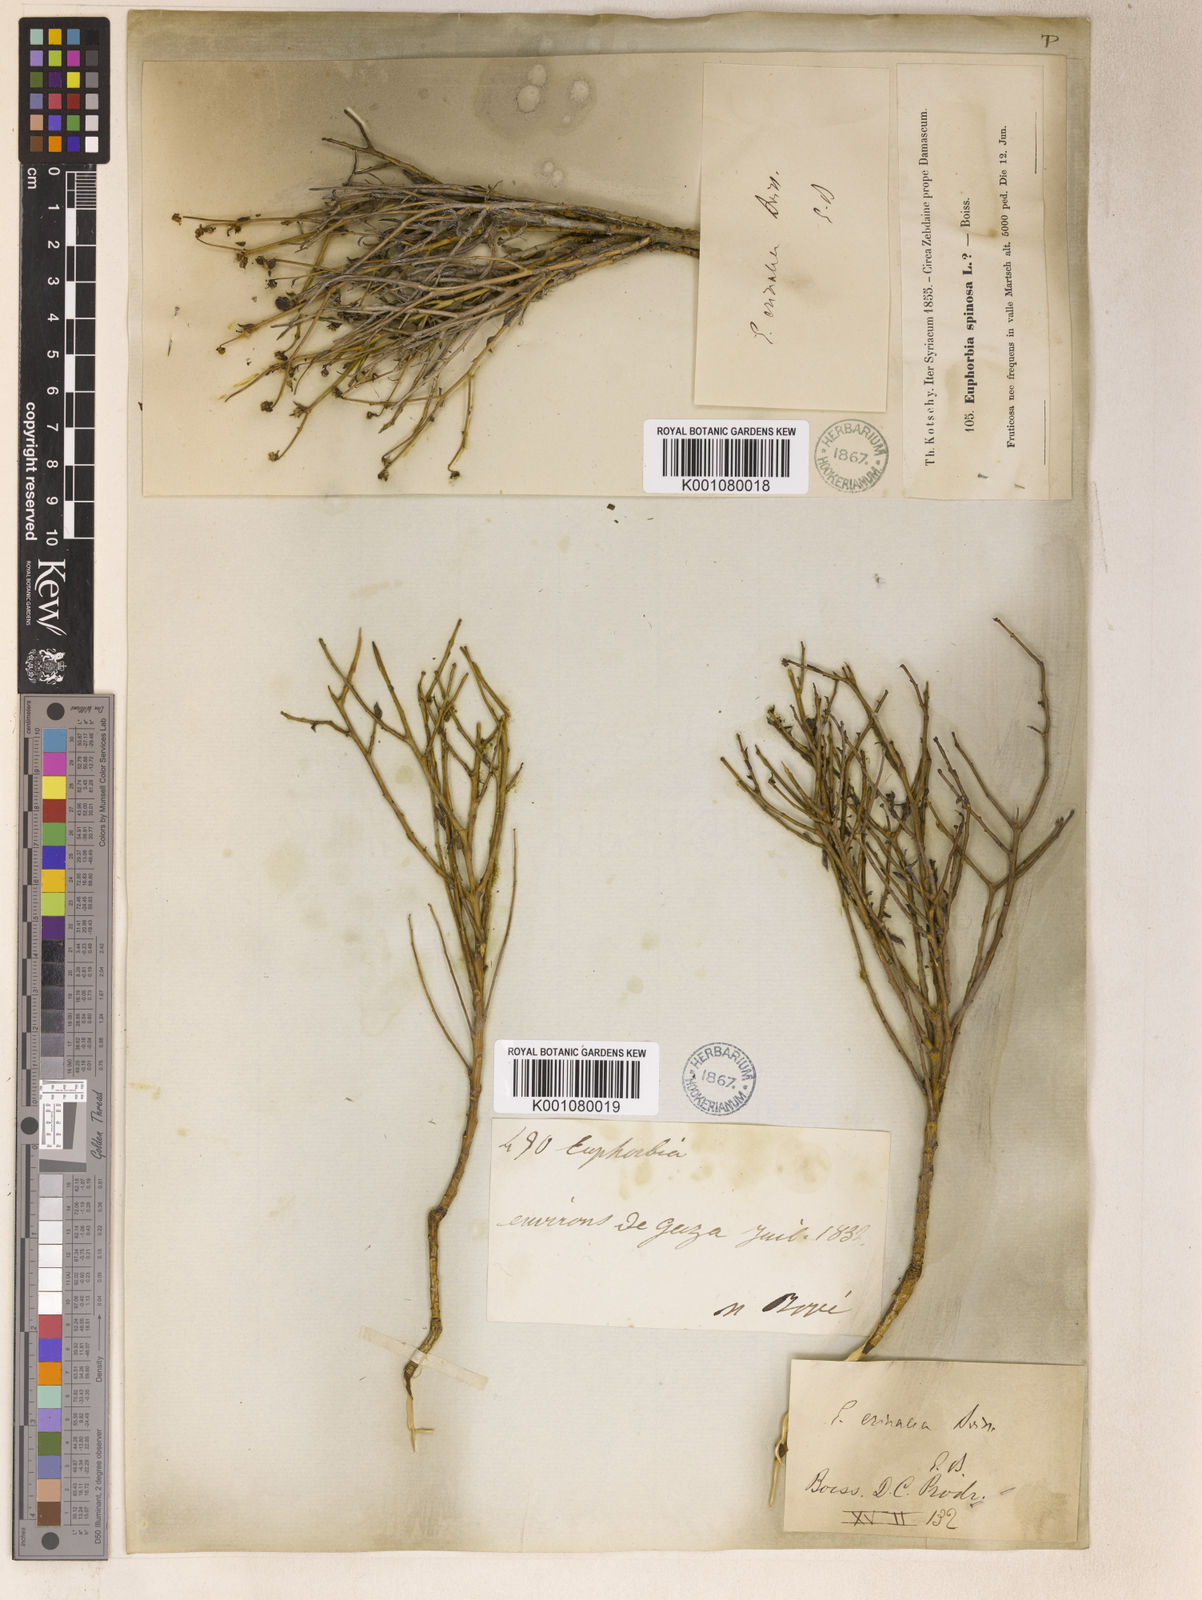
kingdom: Plantae
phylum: Tracheophyta
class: Magnoliopsida
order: Malpighiales
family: Euphorbiaceae
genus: Euphorbia
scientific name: Euphorbia erinacea
